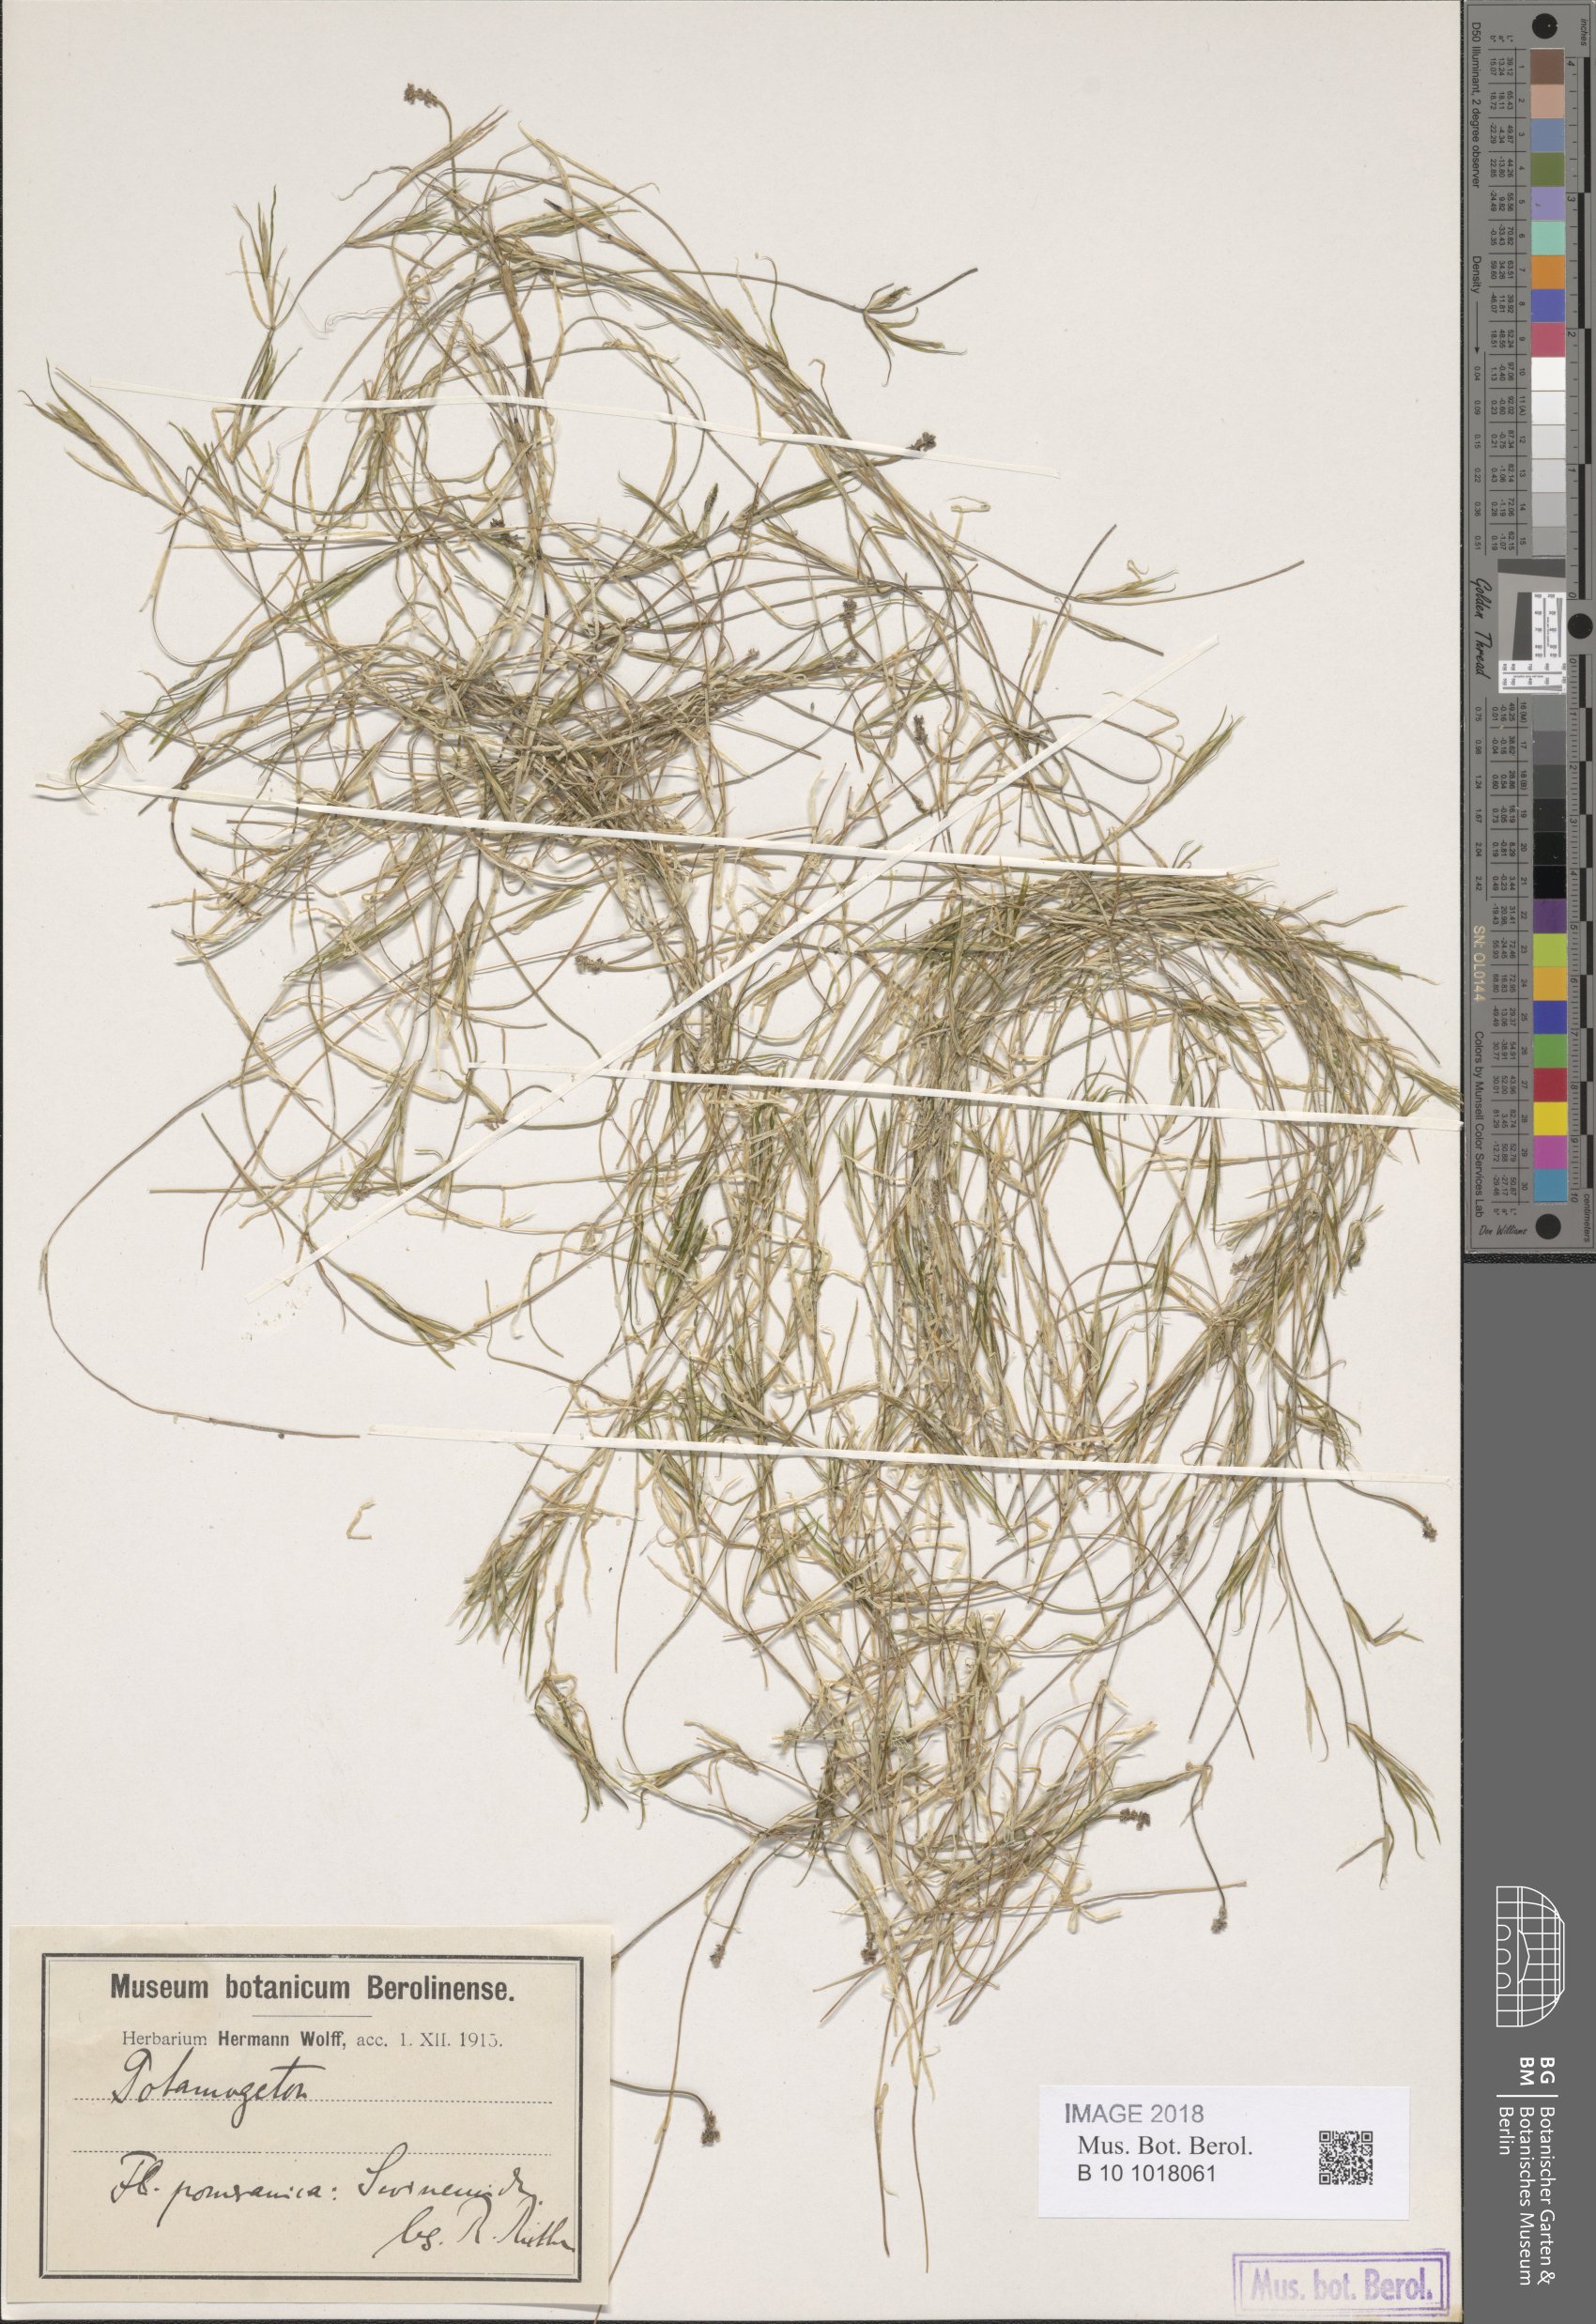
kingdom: Plantae
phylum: Tracheophyta
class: Liliopsida
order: Alismatales
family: Potamogetonaceae
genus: Potamogeton
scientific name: Potamogeton rutilus
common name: Shetland pondweed
